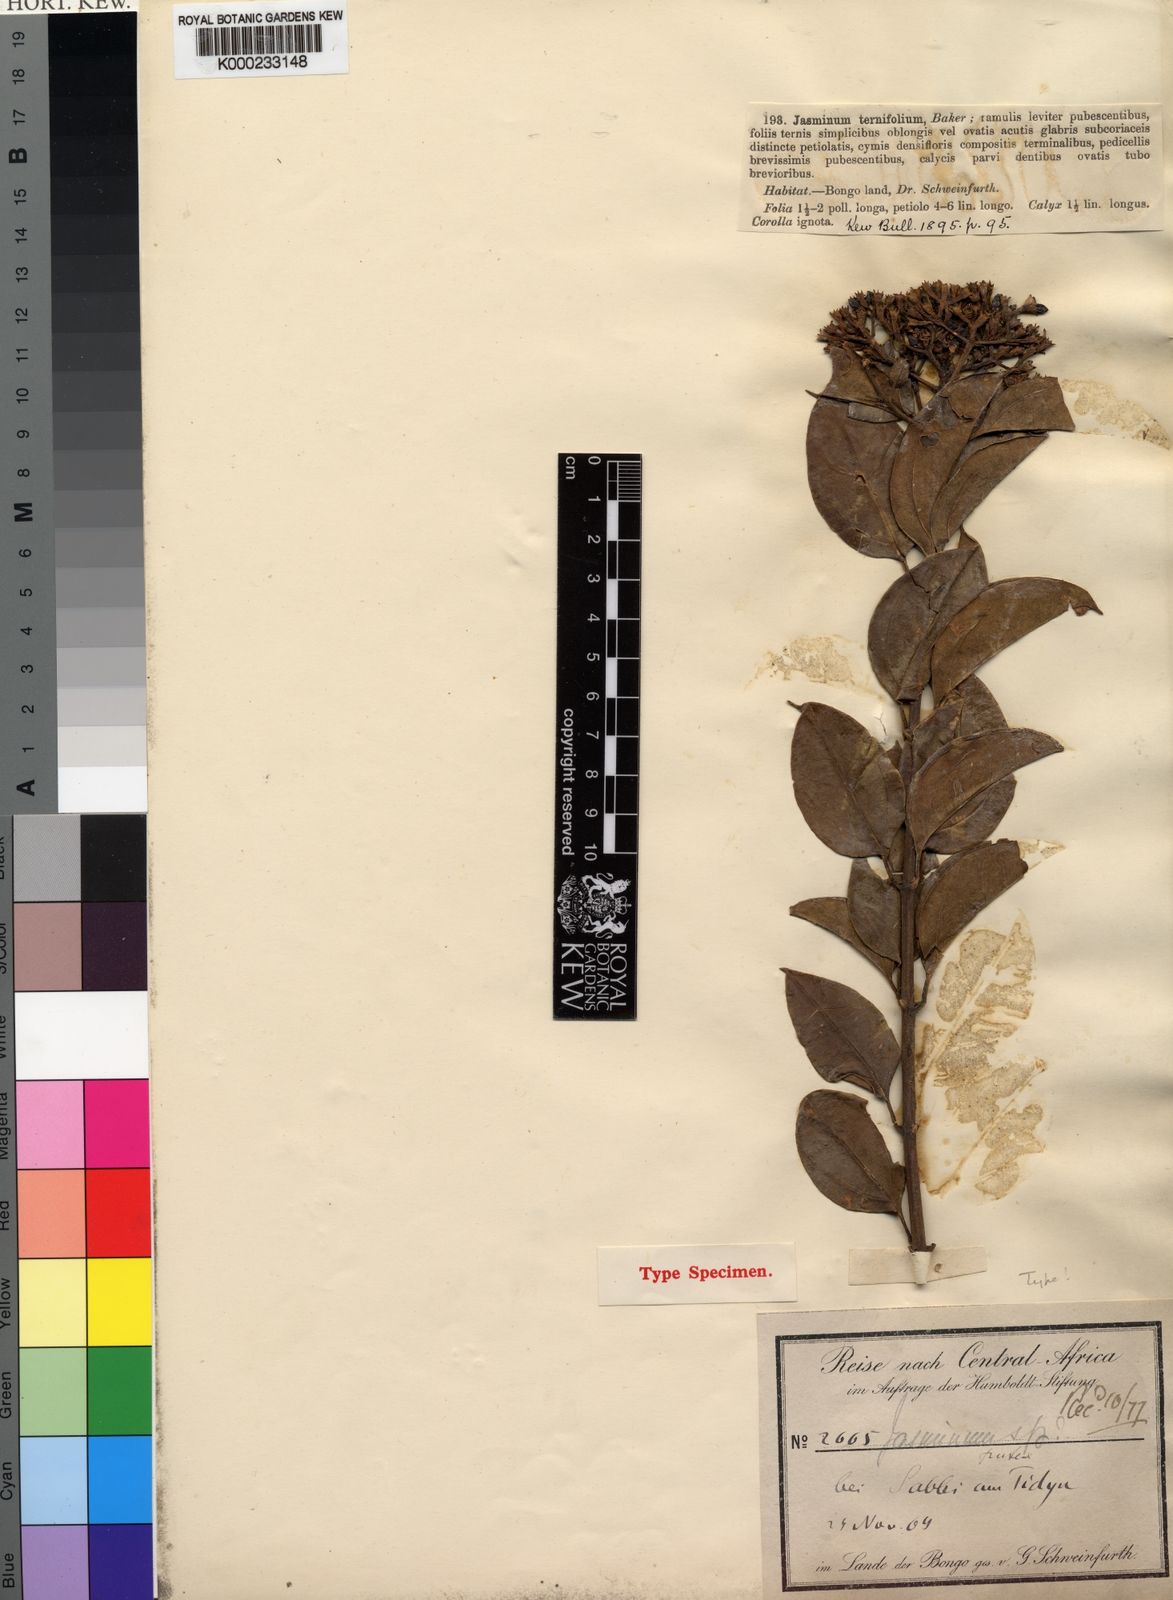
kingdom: Plantae
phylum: Tracheophyta
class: Magnoliopsida
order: Lamiales
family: Oleaceae
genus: Jasminum
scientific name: Jasminum dichotomum
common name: Gold coast jasmine
